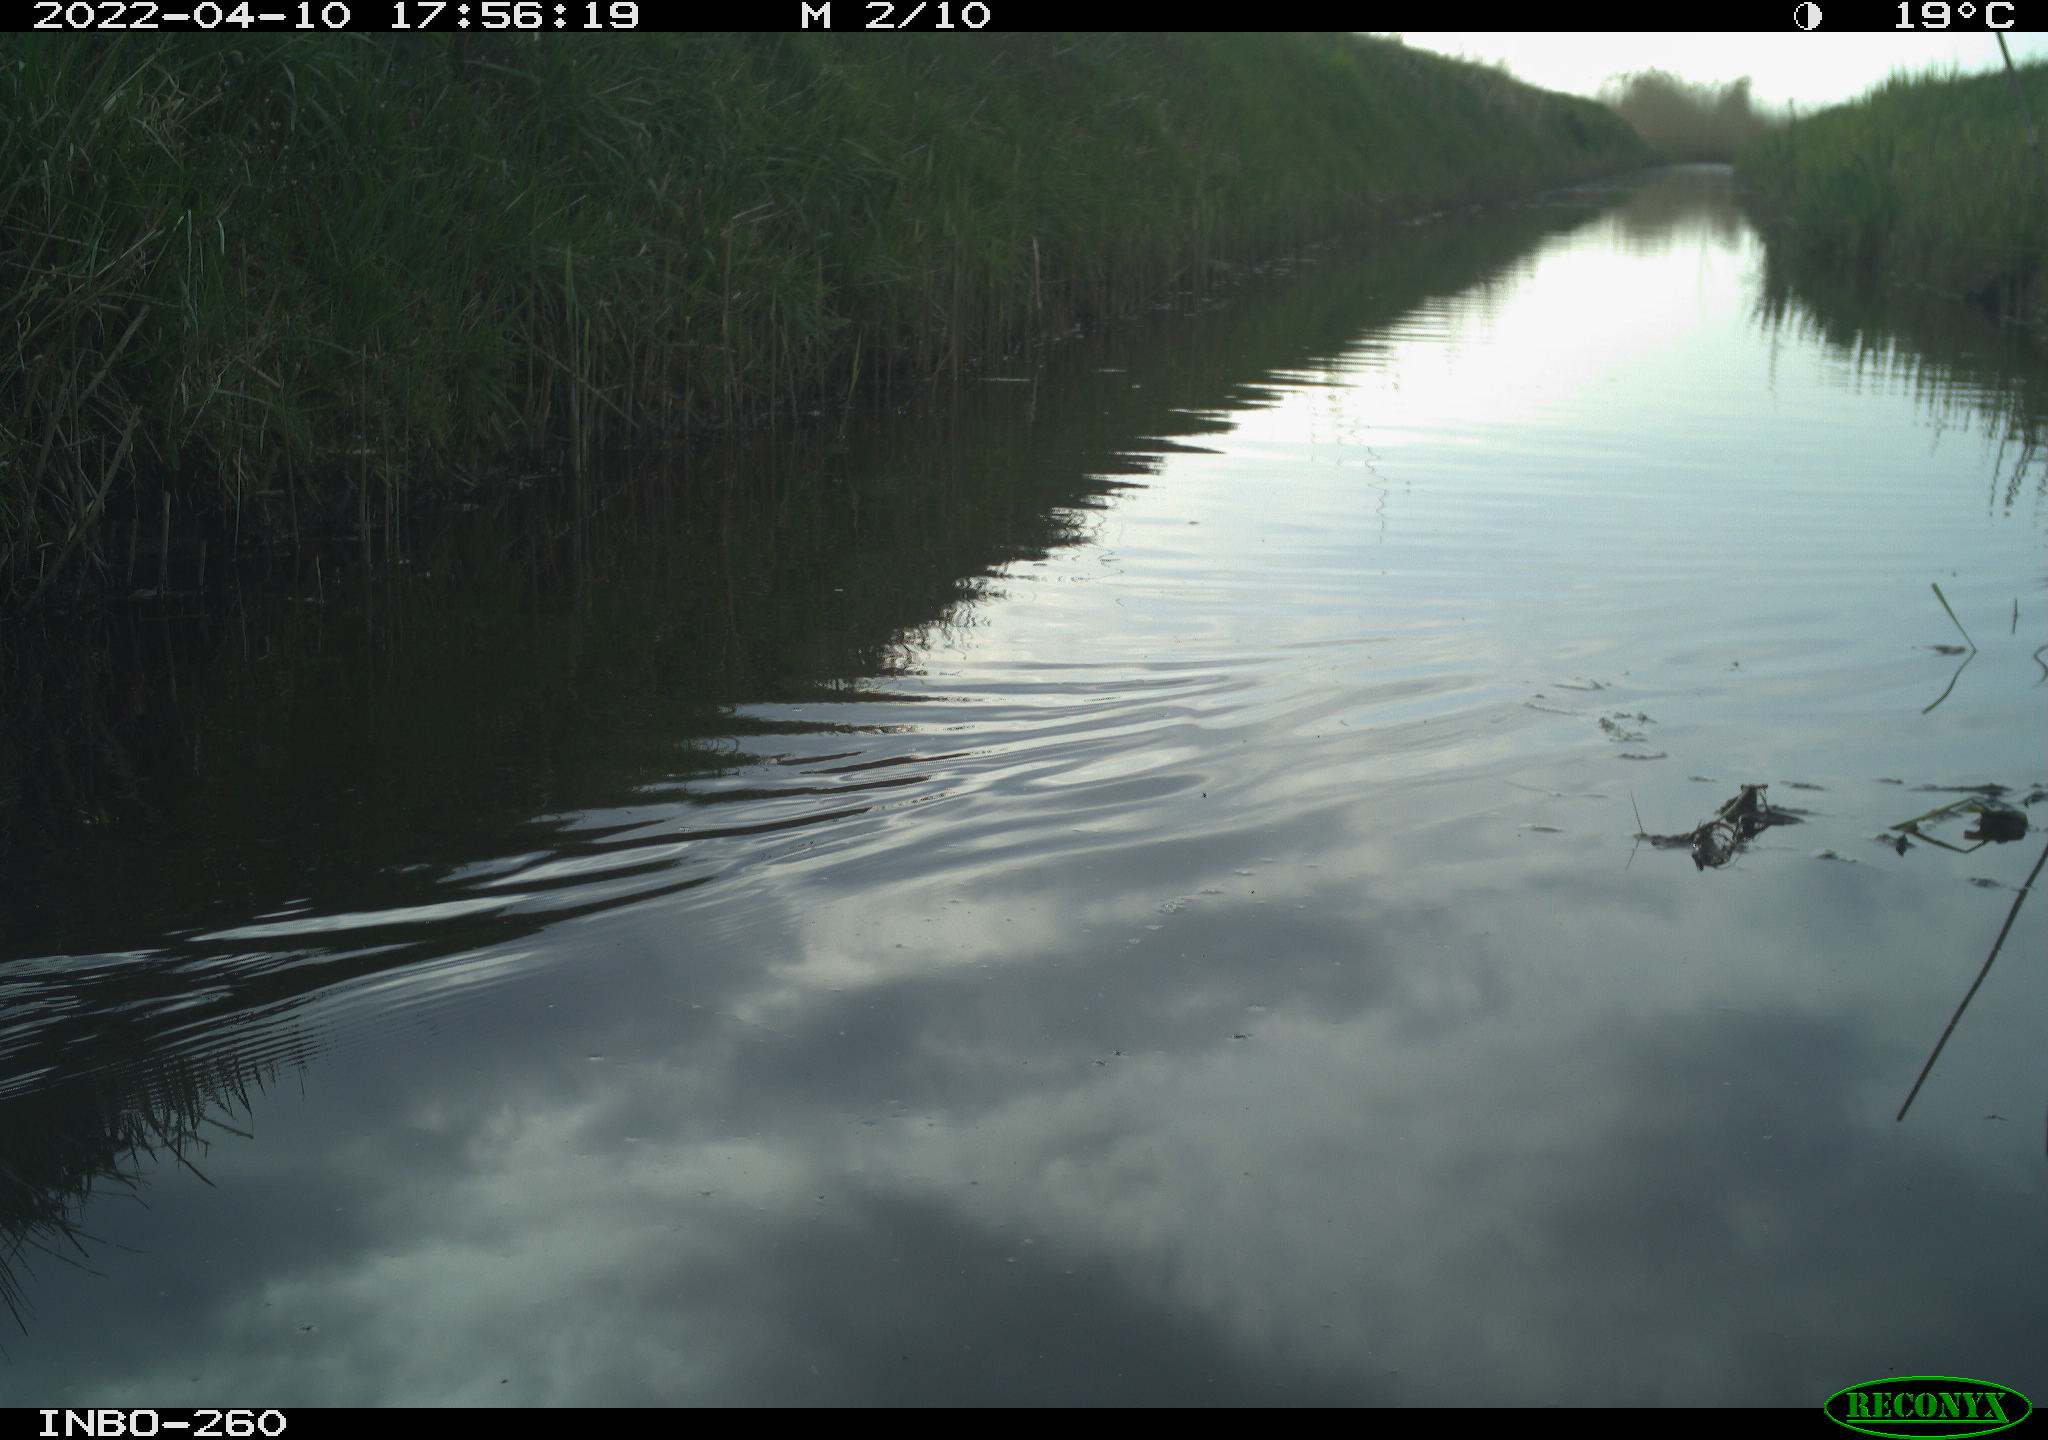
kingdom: Animalia
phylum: Chordata
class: Aves
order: Gruiformes
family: Rallidae
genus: Fulica
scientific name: Fulica atra
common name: Eurasian coot
